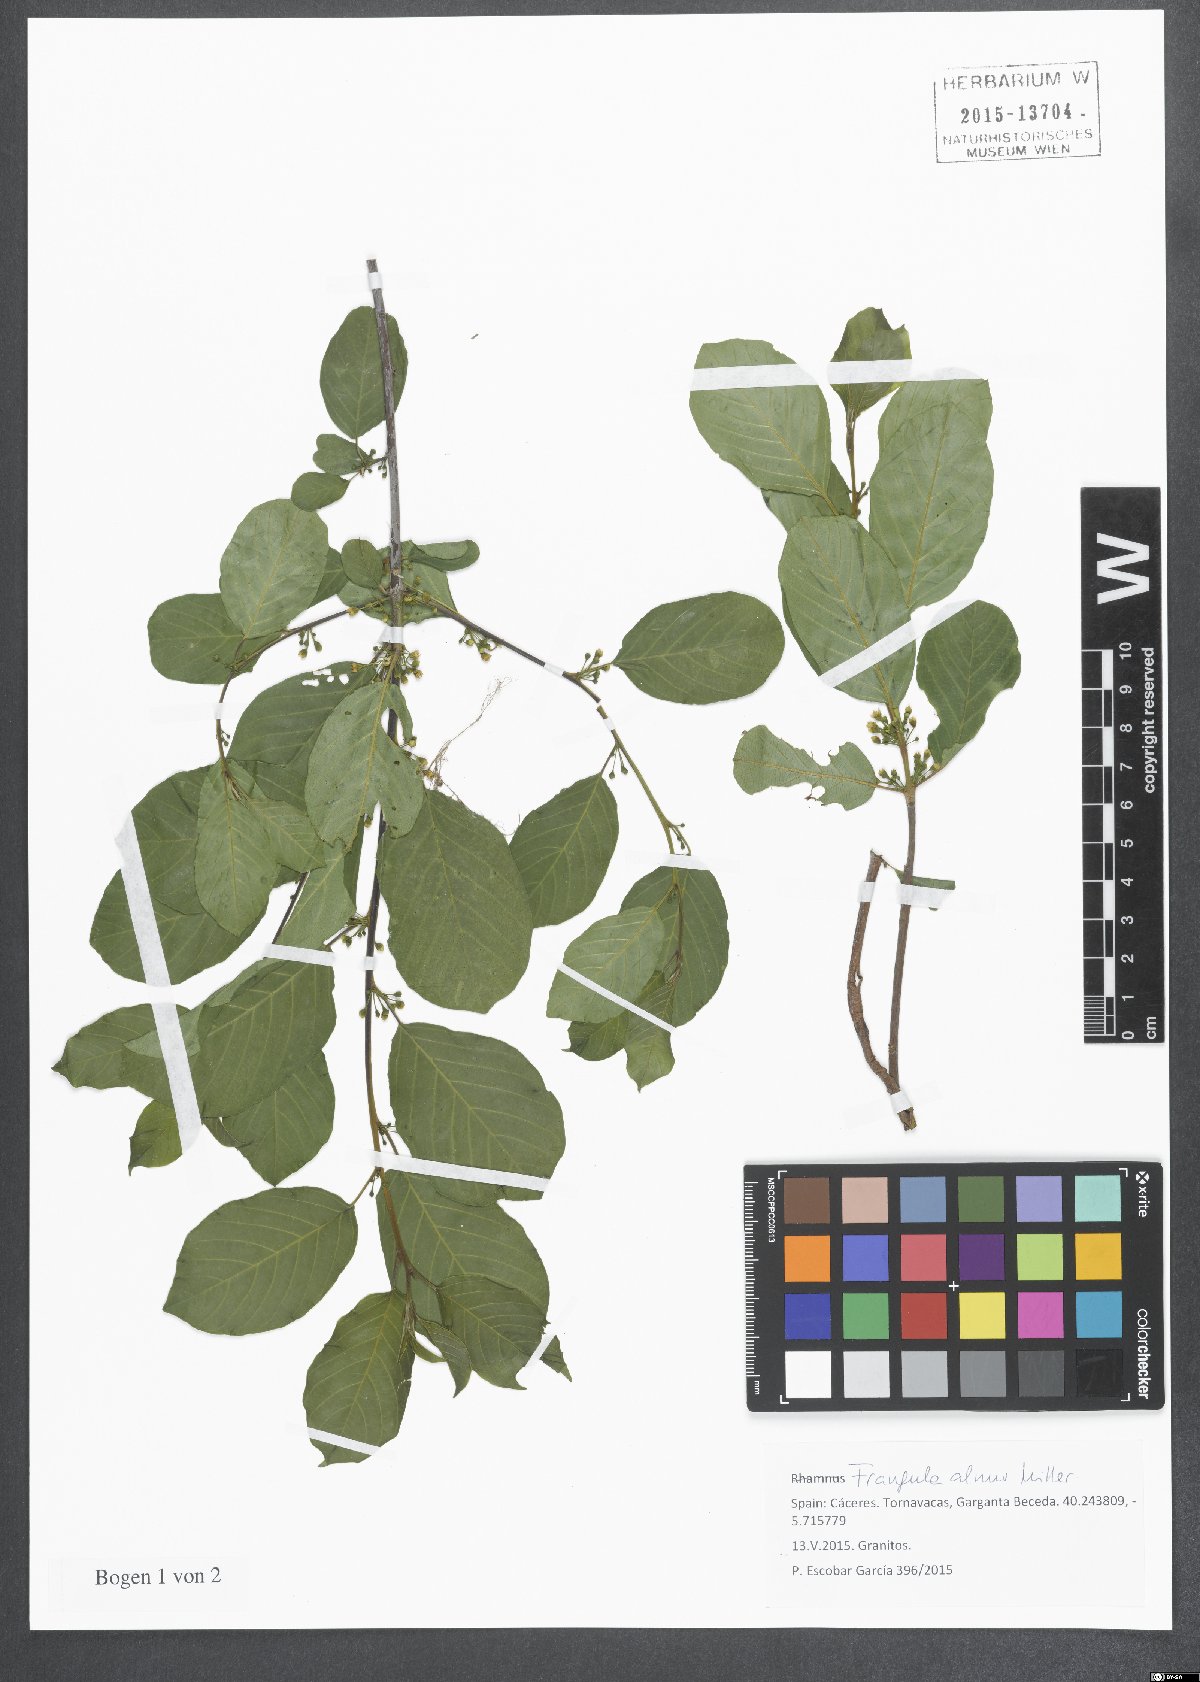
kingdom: Plantae
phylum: Tracheophyta
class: Magnoliopsida
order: Rosales
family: Rhamnaceae
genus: Frangula
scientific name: Frangula alnus
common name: Alder buckthorn
